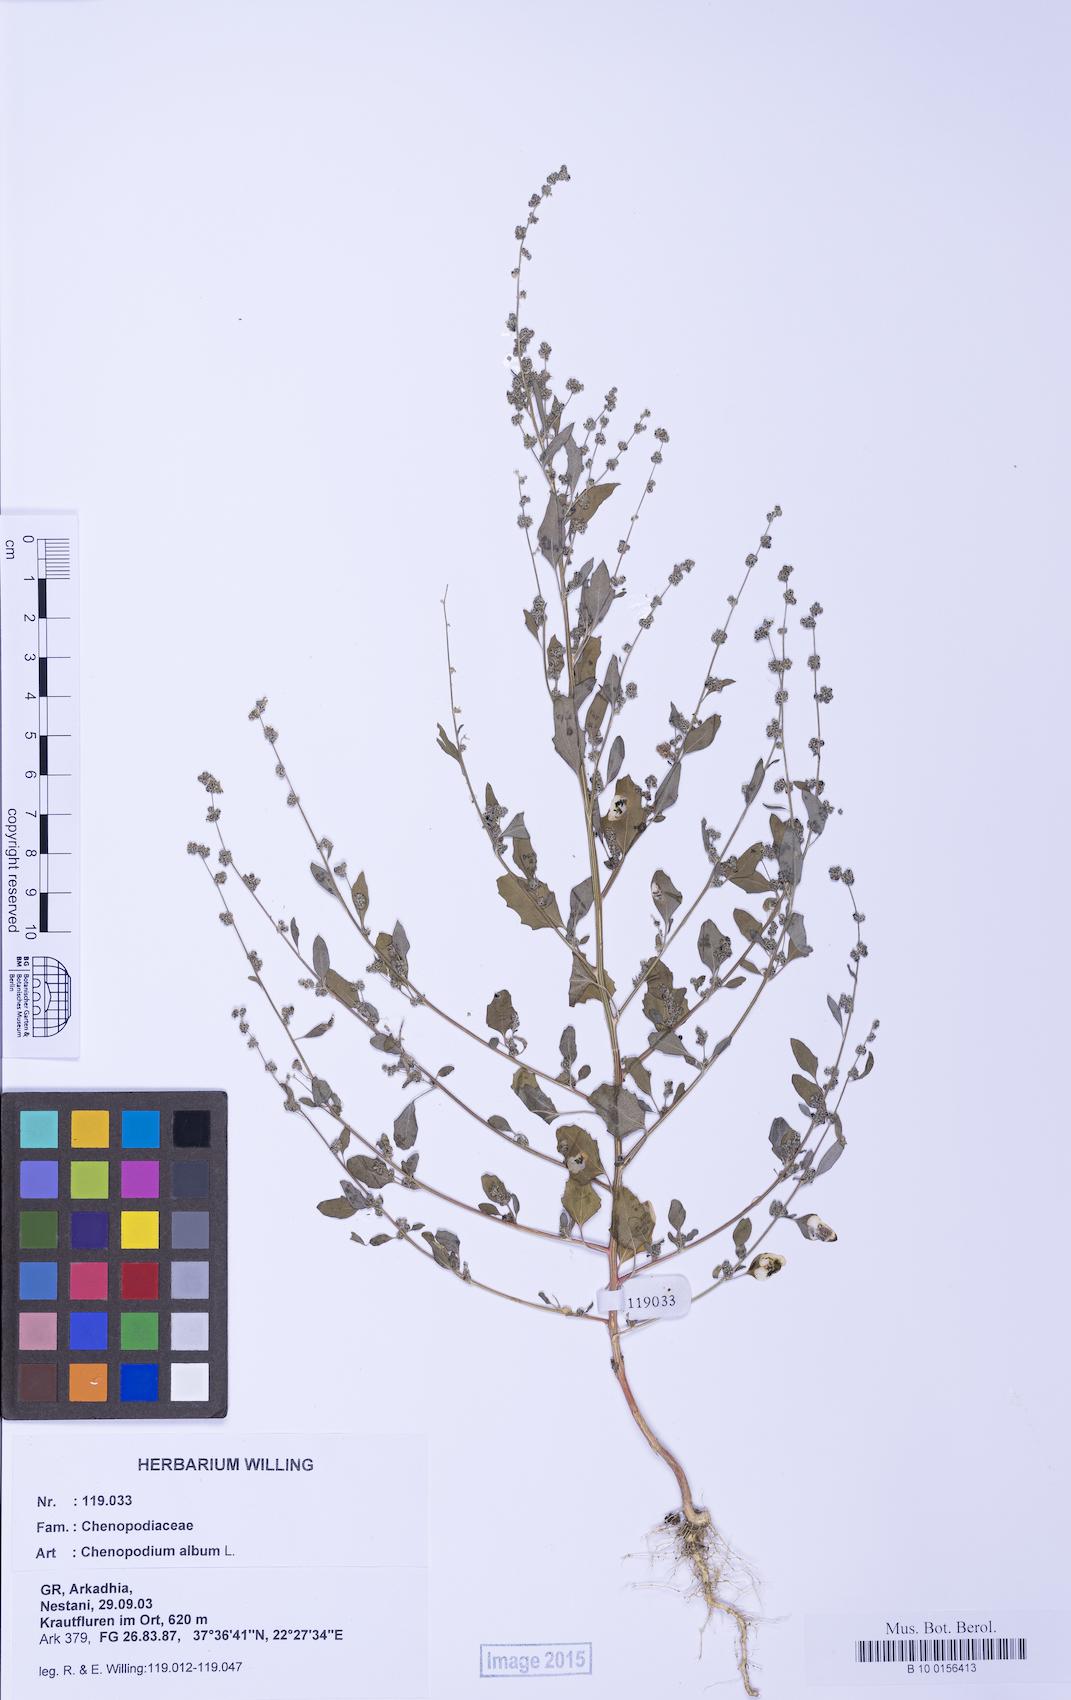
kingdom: Plantae
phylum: Tracheophyta
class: Magnoliopsida
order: Caryophyllales
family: Amaranthaceae
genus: Chenopodium
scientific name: Chenopodium striatiforme
